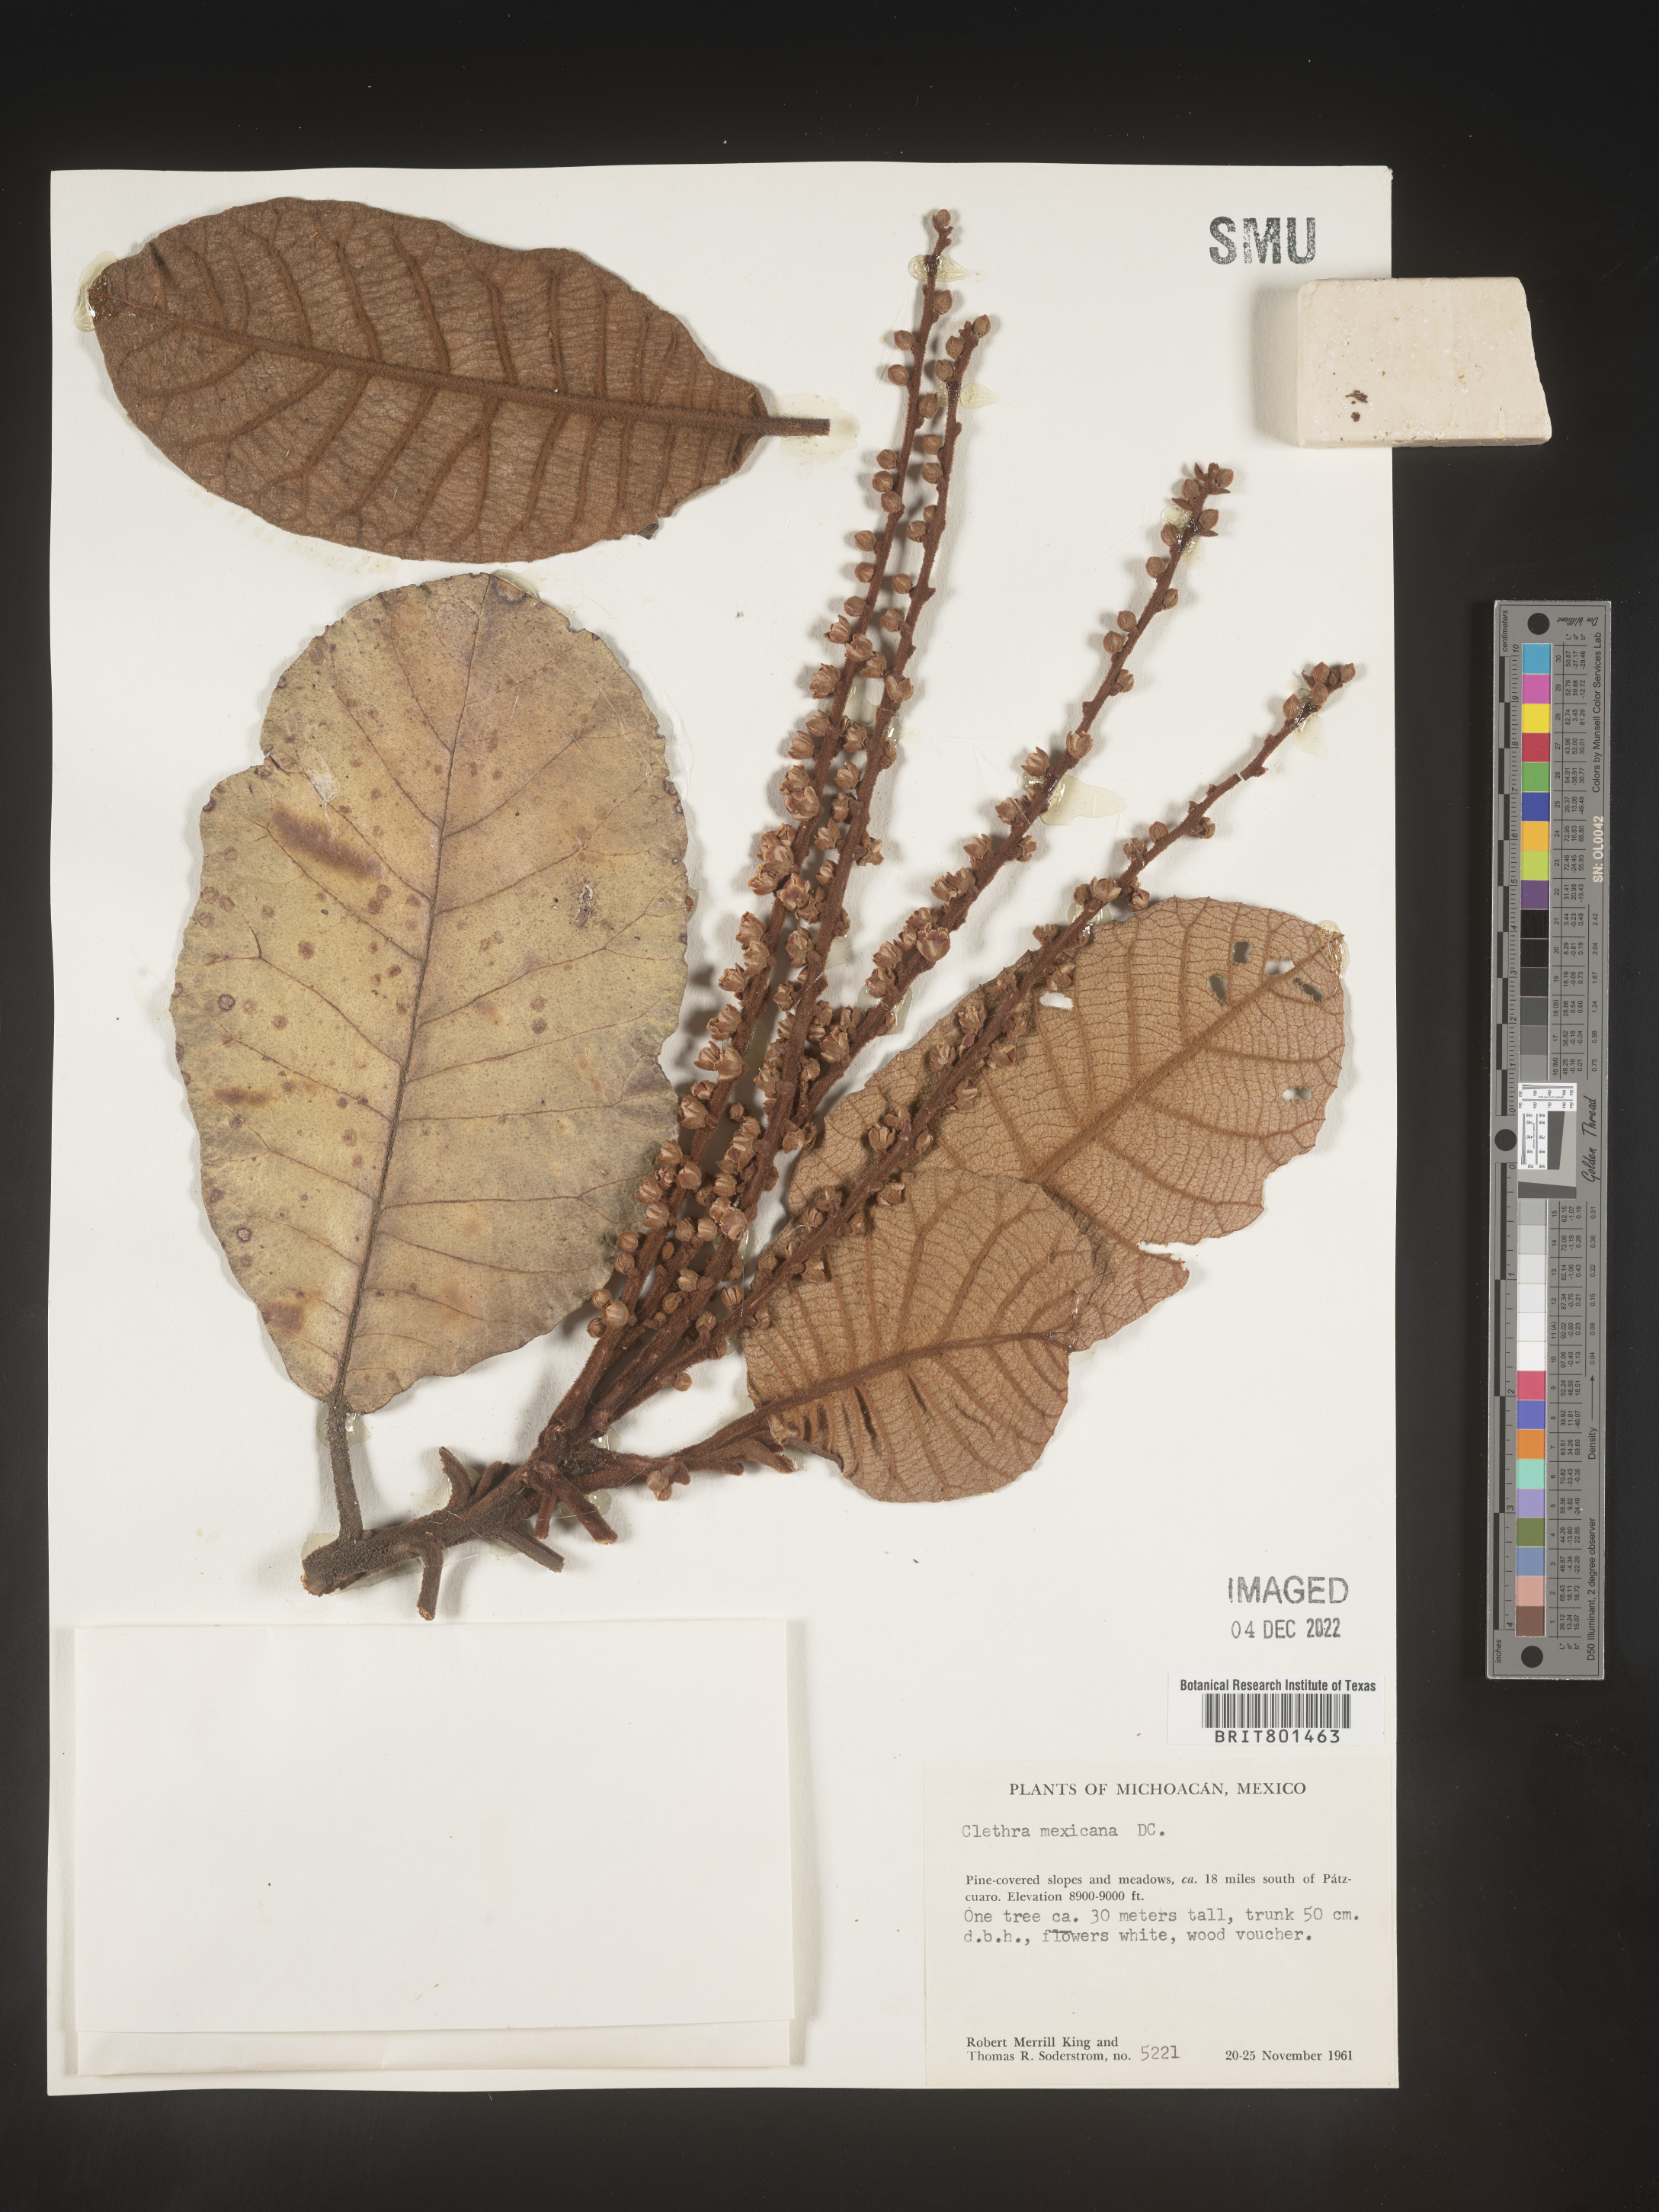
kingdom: Plantae
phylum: Tracheophyta
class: Magnoliopsida
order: Ericales
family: Clethraceae
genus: Clethra
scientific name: Clethra
